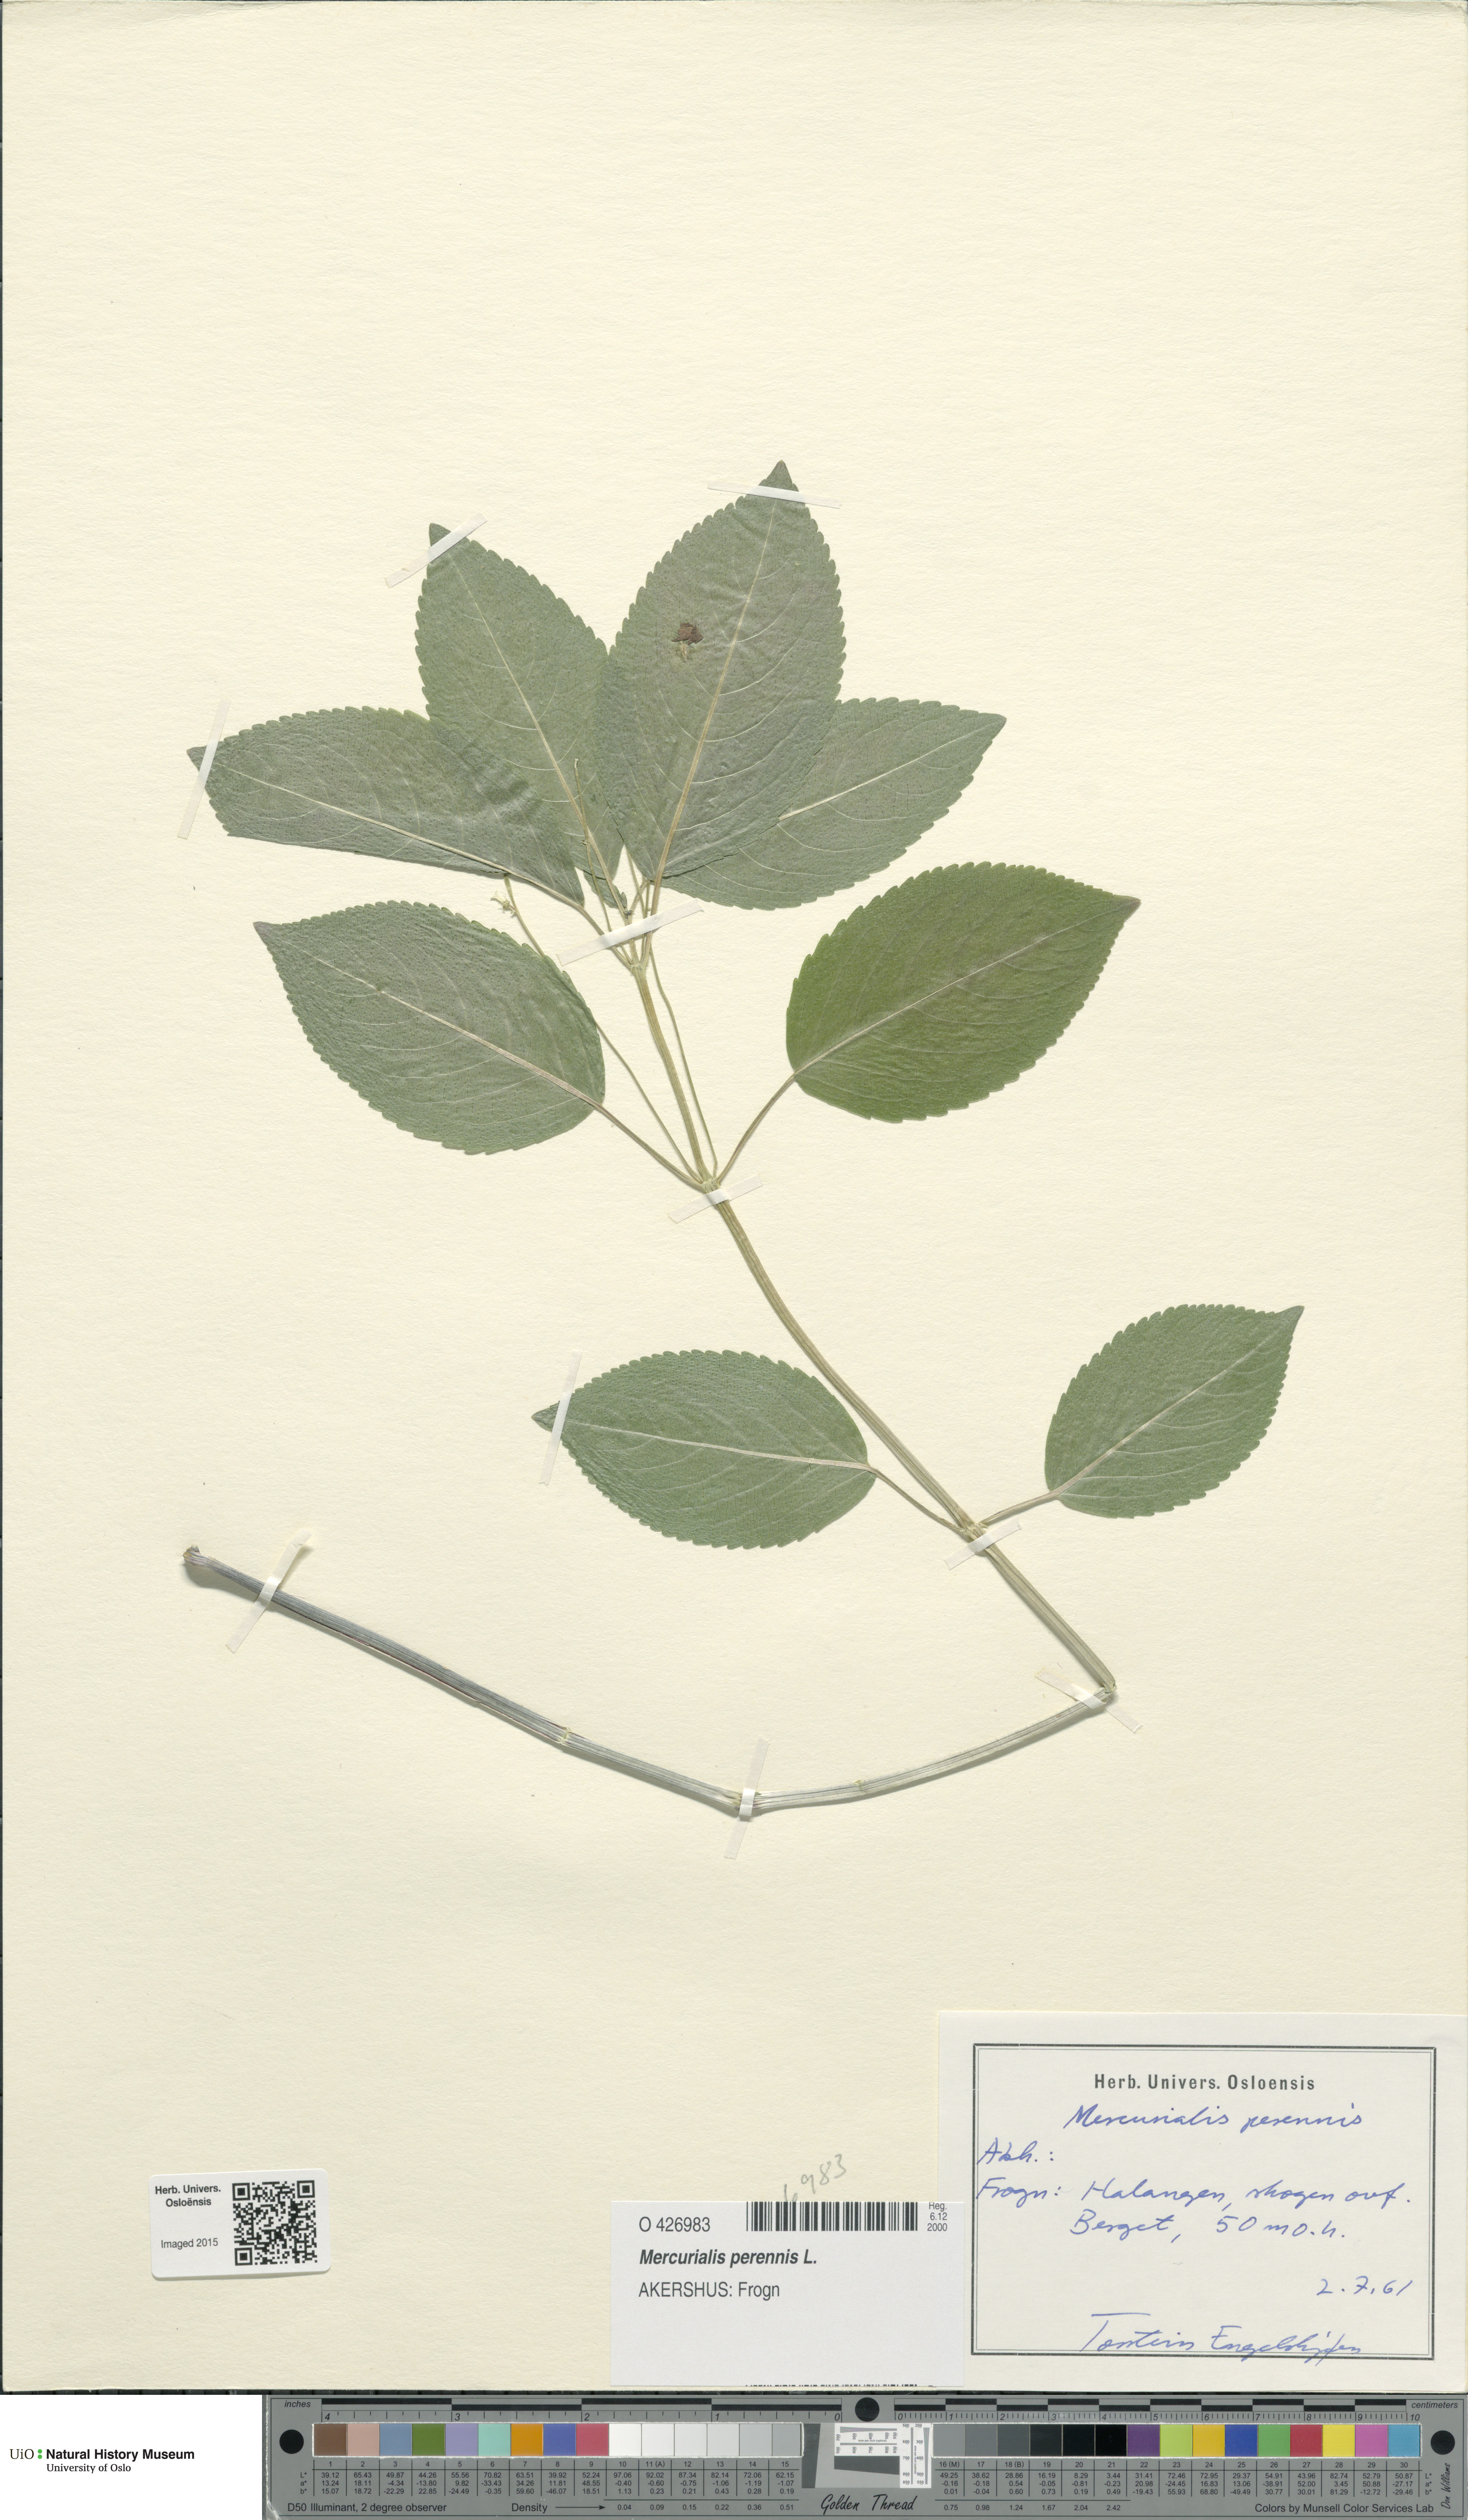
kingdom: Plantae
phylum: Tracheophyta
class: Magnoliopsida
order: Malpighiales
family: Euphorbiaceae
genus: Mercurialis
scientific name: Mercurialis perennis
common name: Dog mercury
